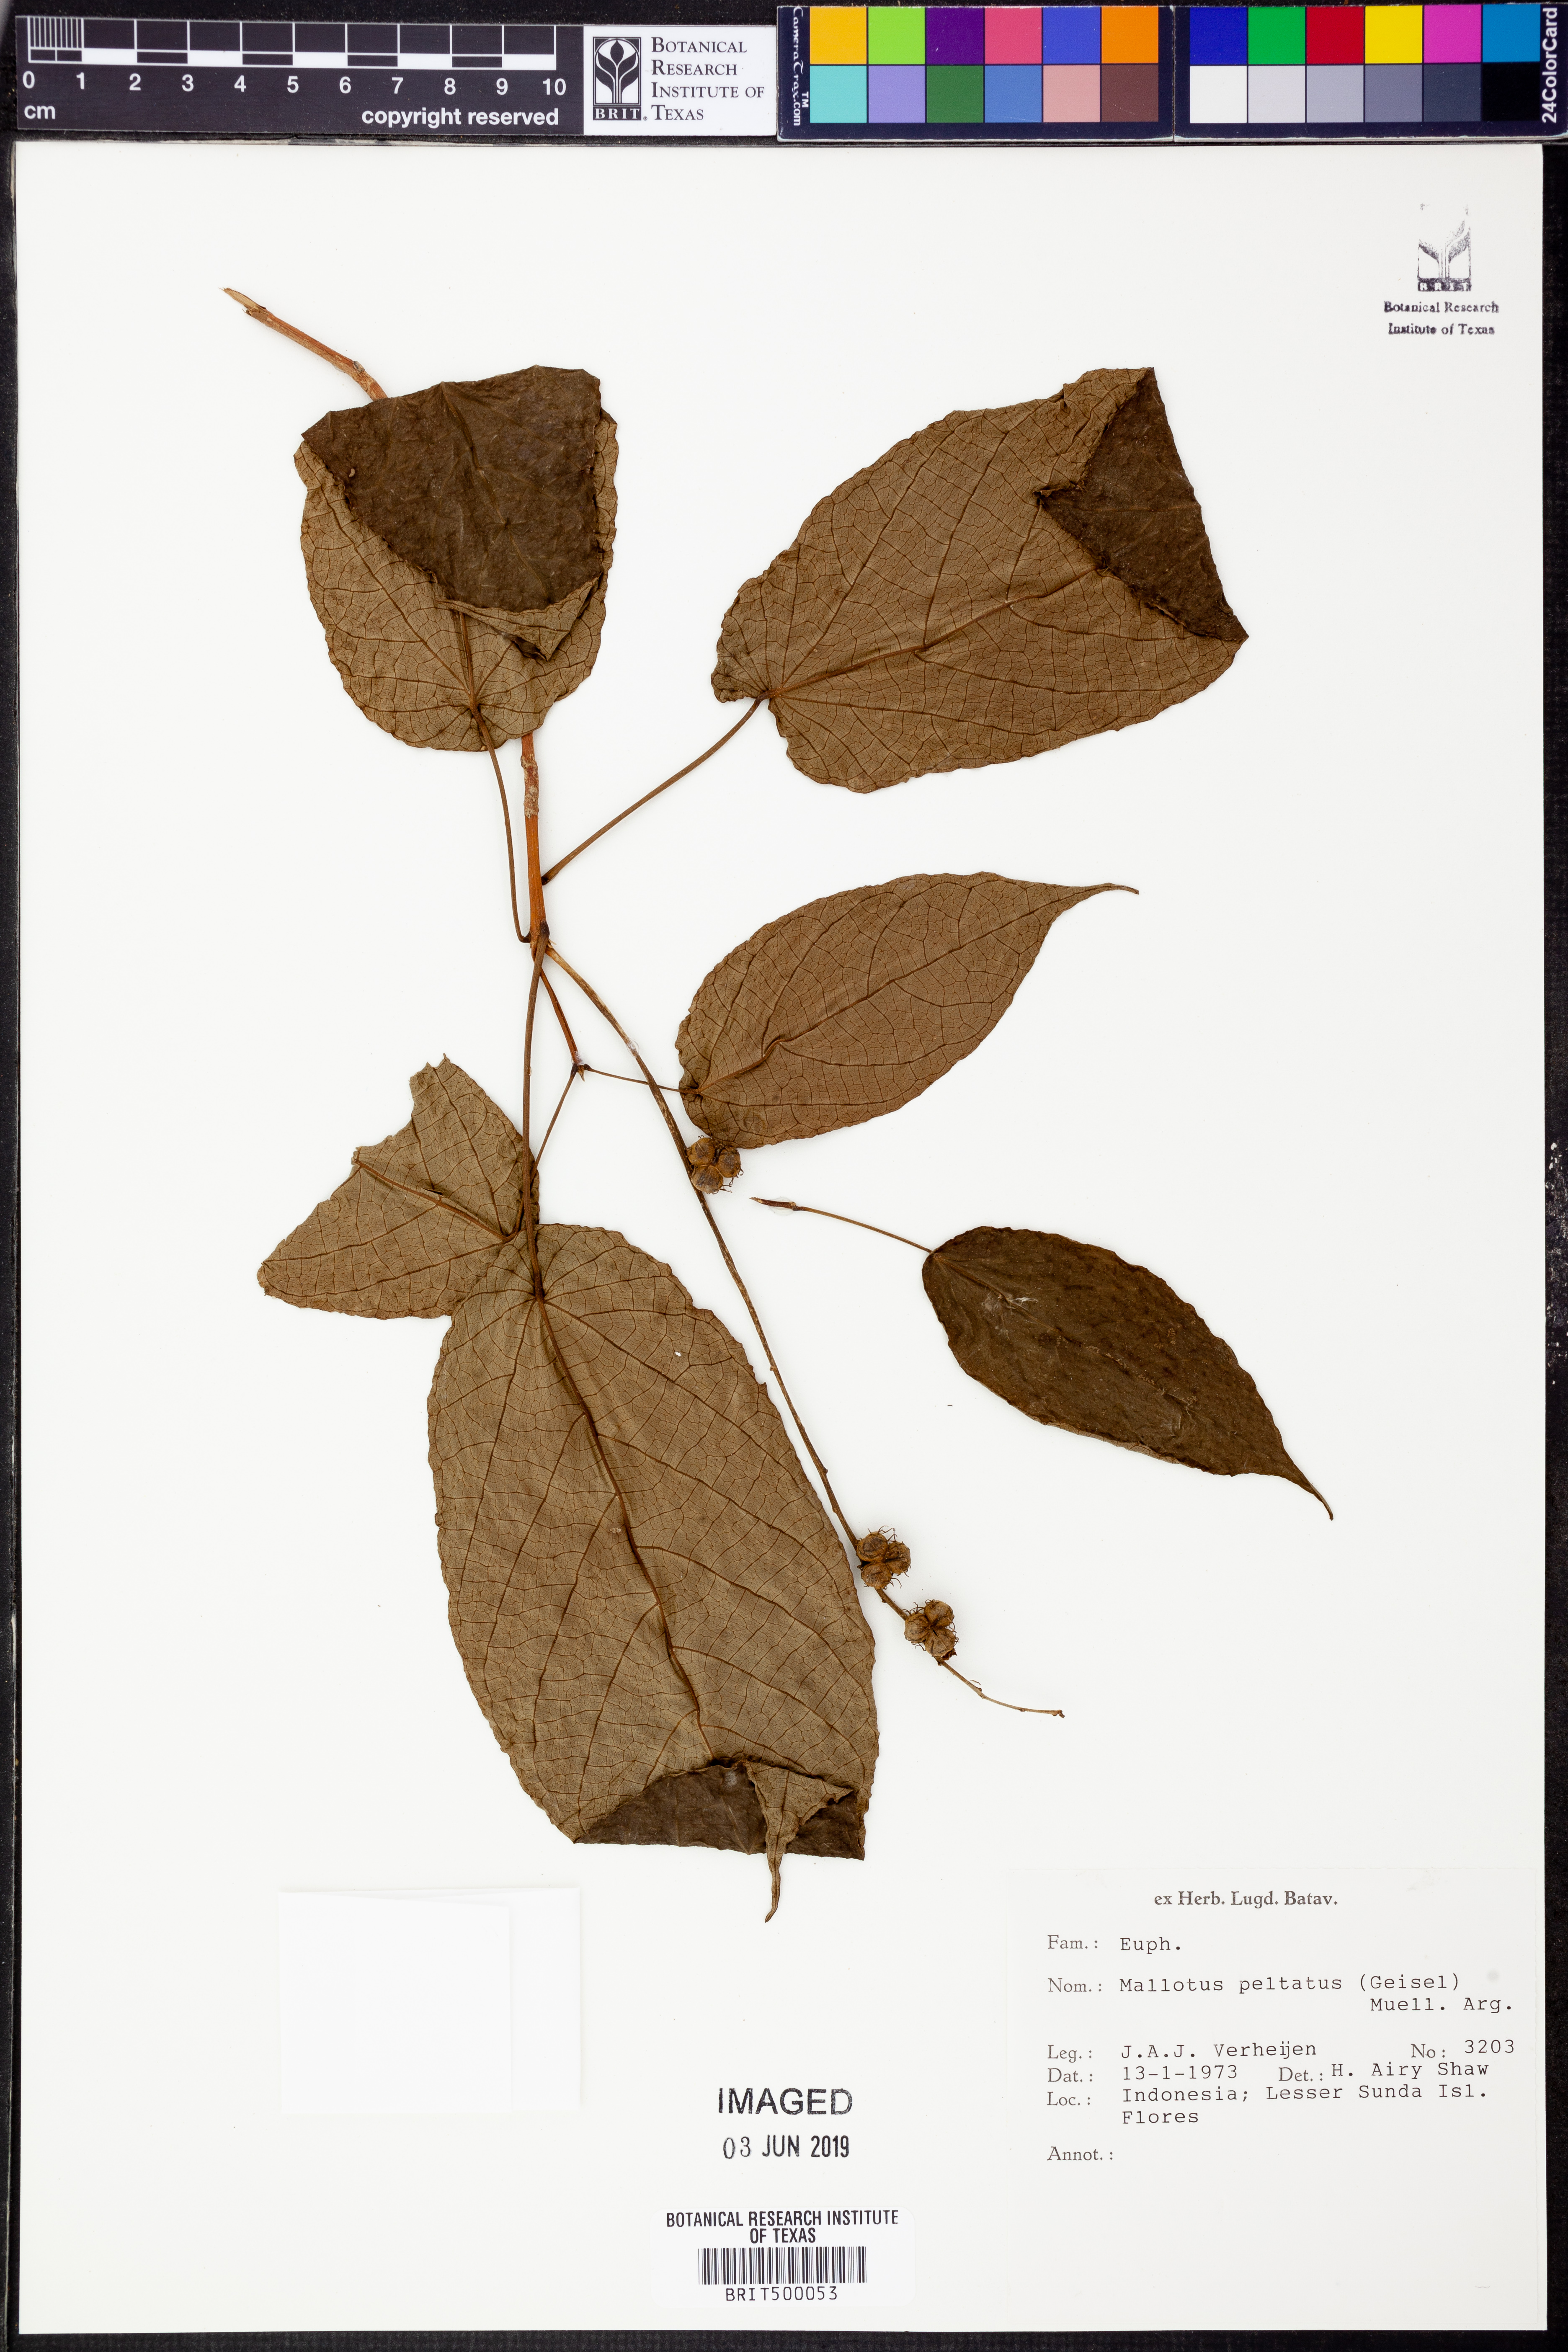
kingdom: Plantae
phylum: Tracheophyta
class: Magnoliopsida
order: Malpighiales
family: Euphorbiaceae
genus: Mallotus
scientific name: Mallotus peltatus
